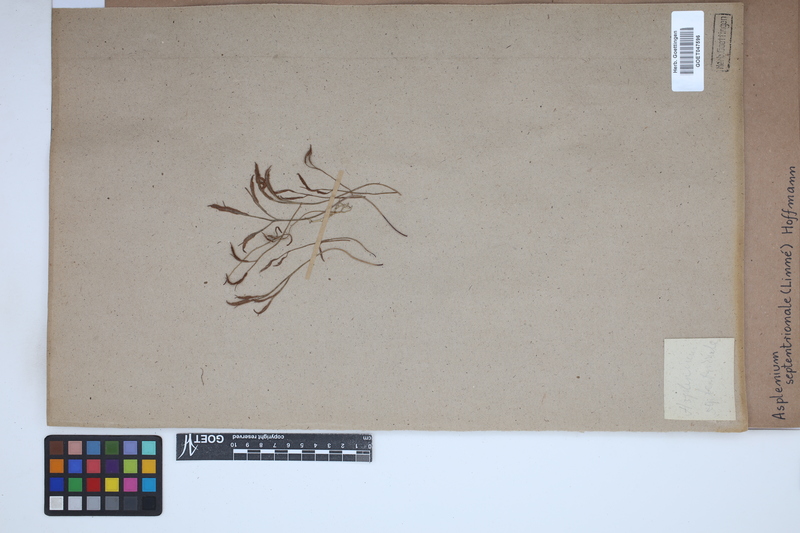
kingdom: Plantae
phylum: Tracheophyta
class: Polypodiopsida
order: Polypodiales
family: Aspleniaceae
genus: Asplenium
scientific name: Asplenium septentrionale
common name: Forked spleenwort
